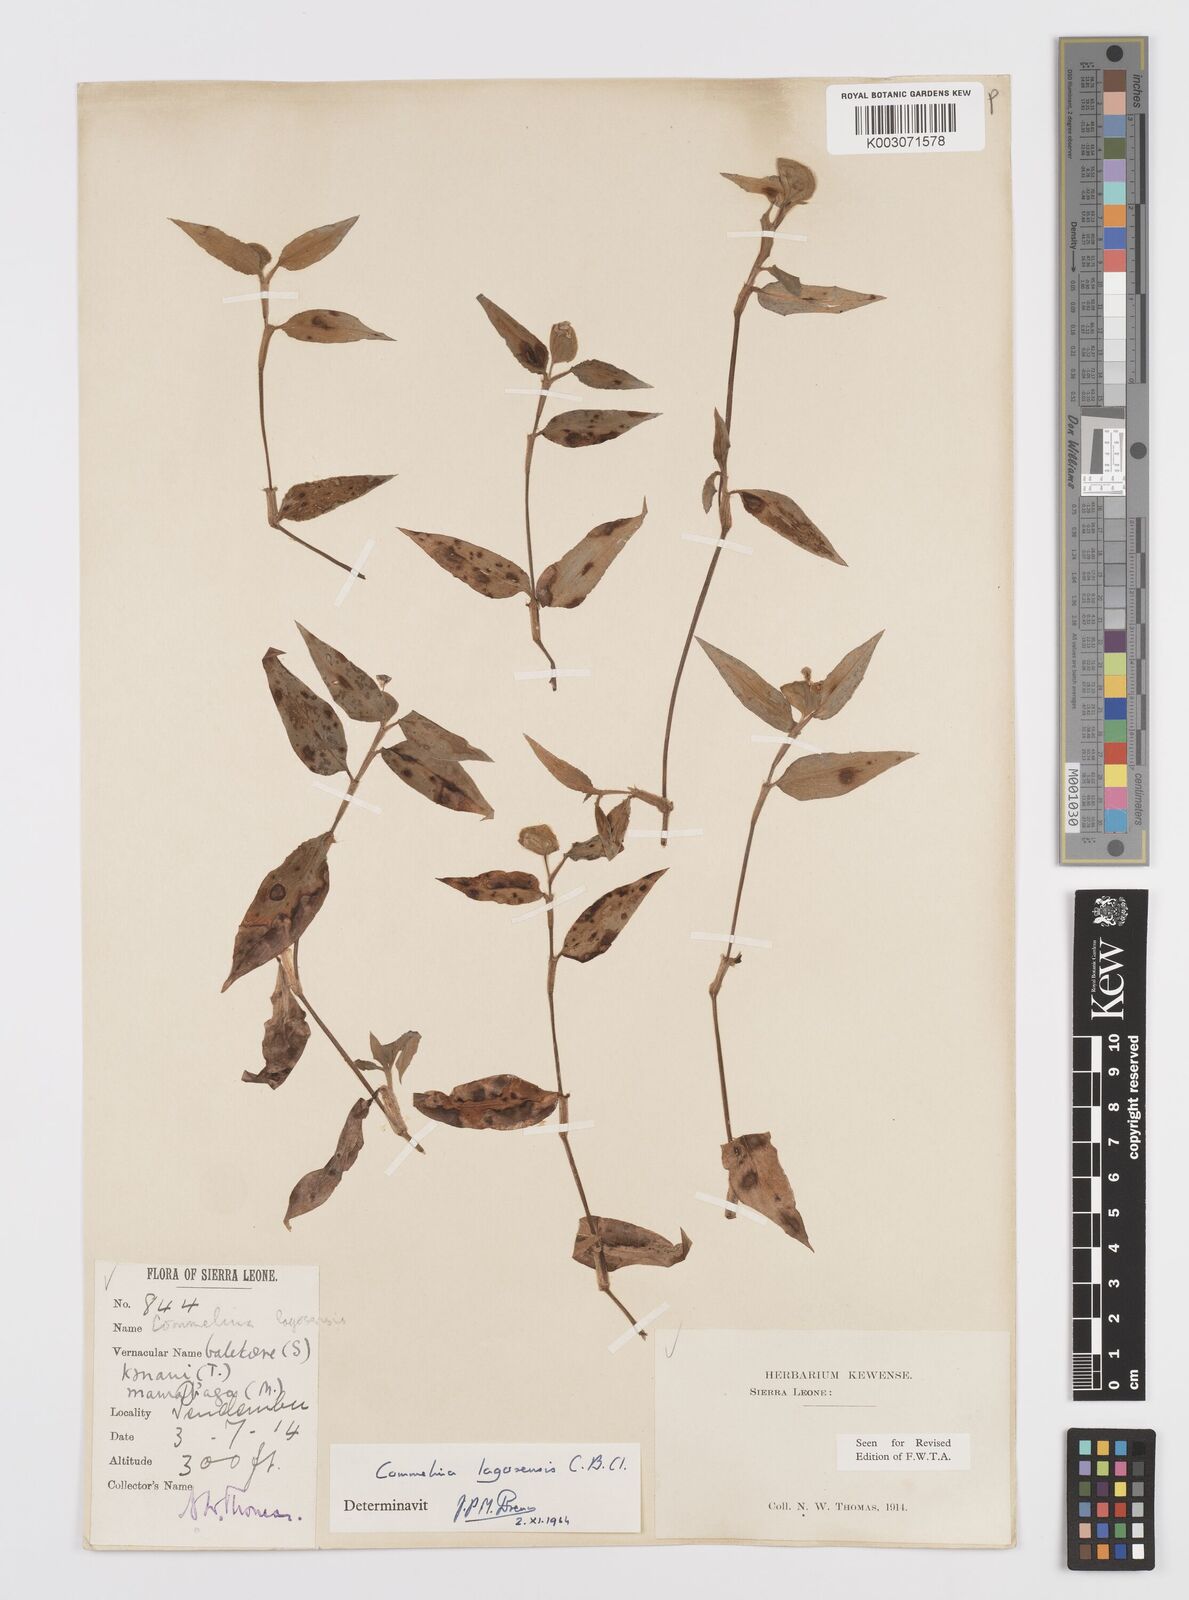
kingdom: Plantae
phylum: Tracheophyta
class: Liliopsida
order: Commelinales
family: Commelinaceae
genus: Commelina
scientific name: Commelina bracteosa
